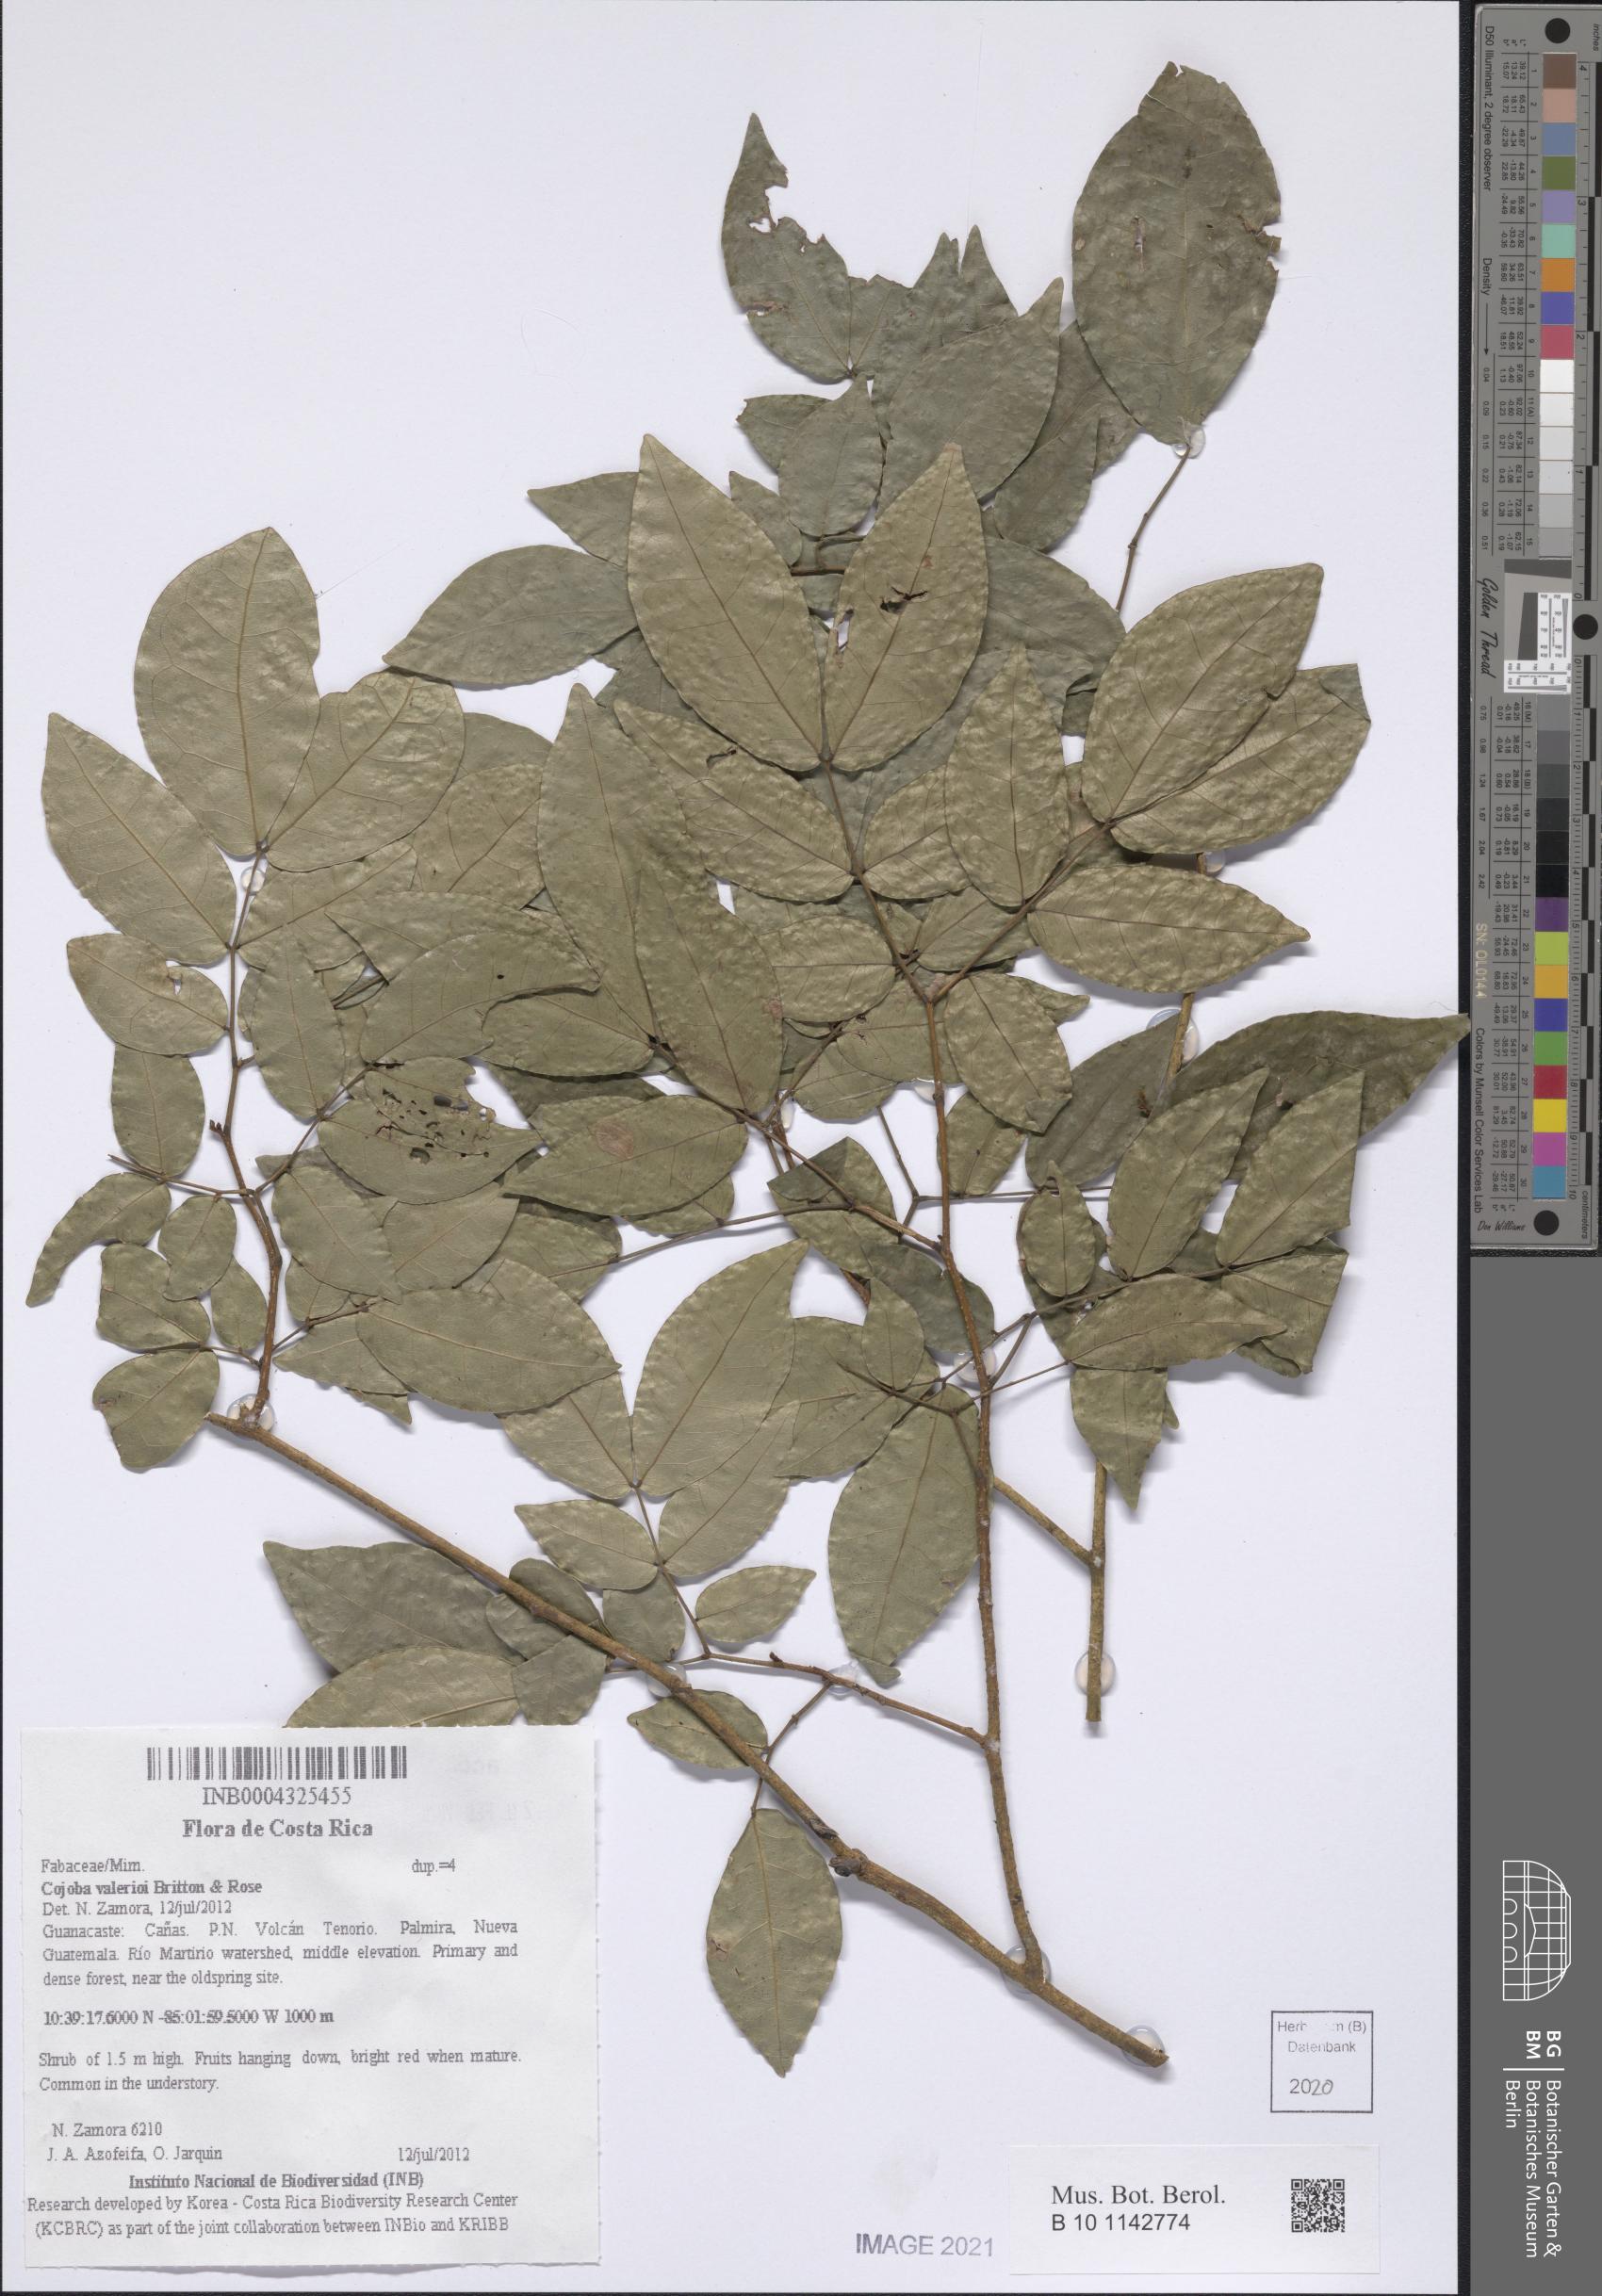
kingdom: Plantae
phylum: Tracheophyta
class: Magnoliopsida
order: Fabales
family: Fabaceae
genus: Cojoba
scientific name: Cojoba catenata
